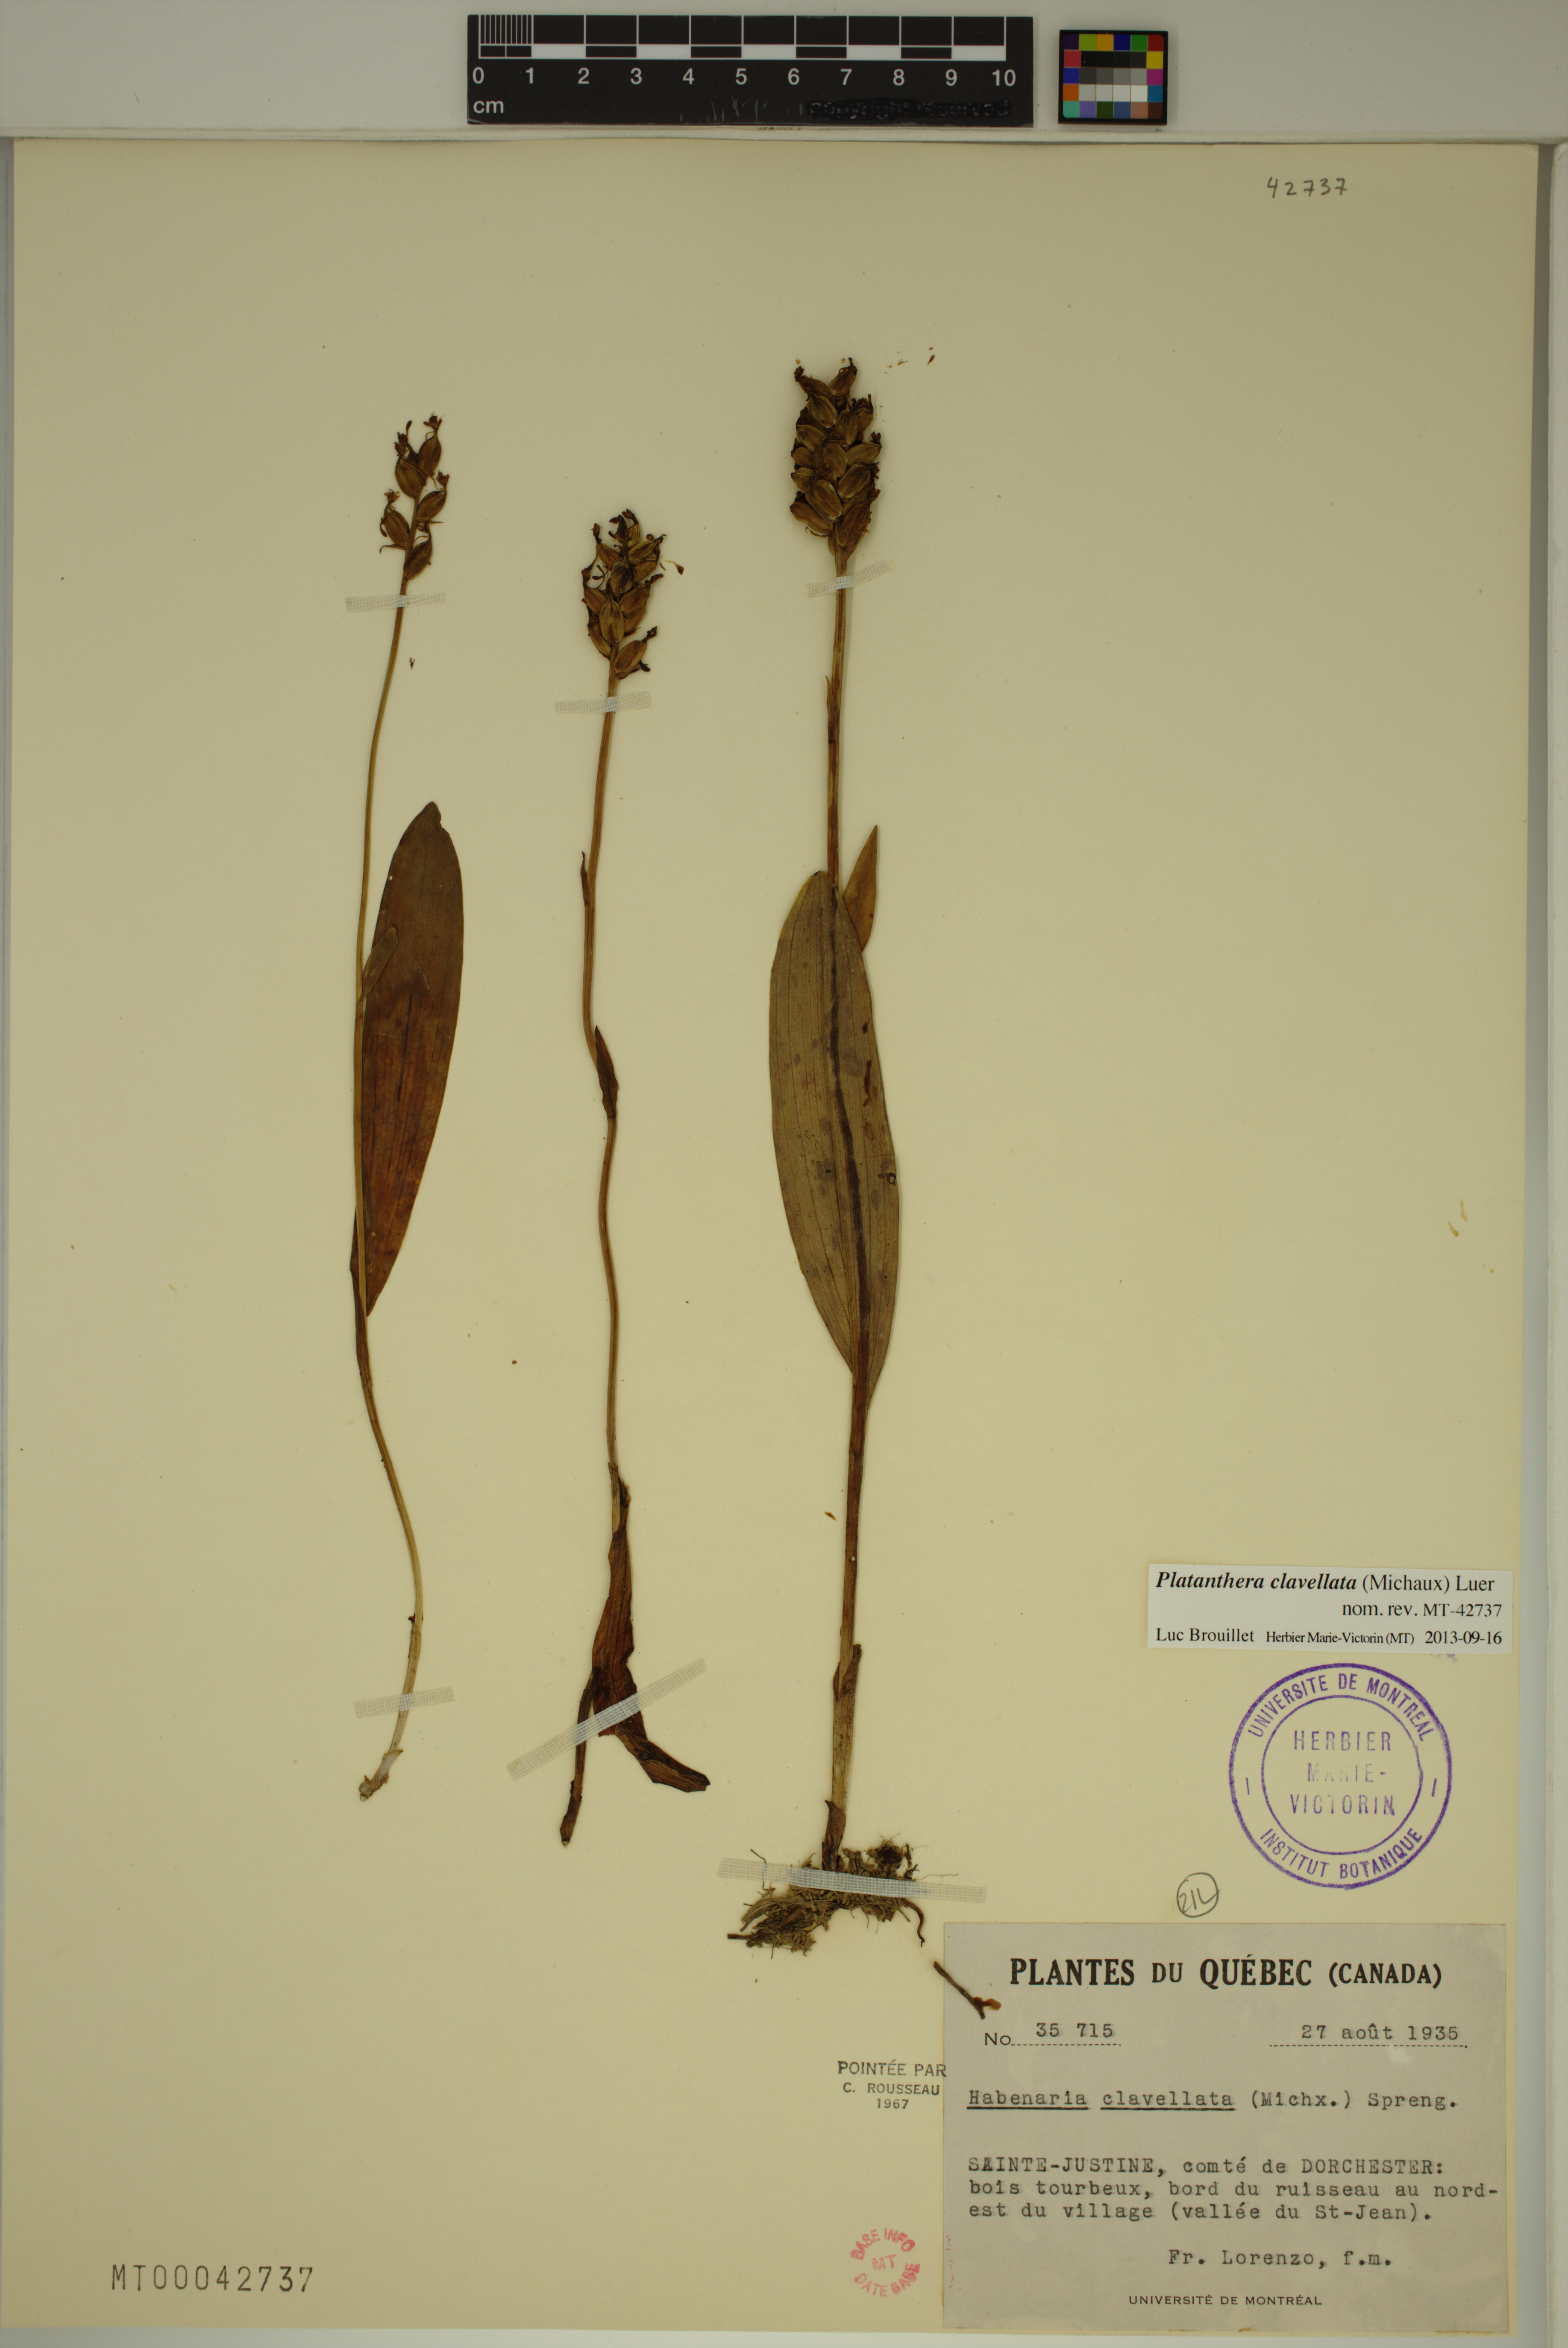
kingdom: Plantae
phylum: Tracheophyta
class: Liliopsida
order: Asparagales
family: Orchidaceae
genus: Platanthera
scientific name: Platanthera clavellata
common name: Club-spur orchid
